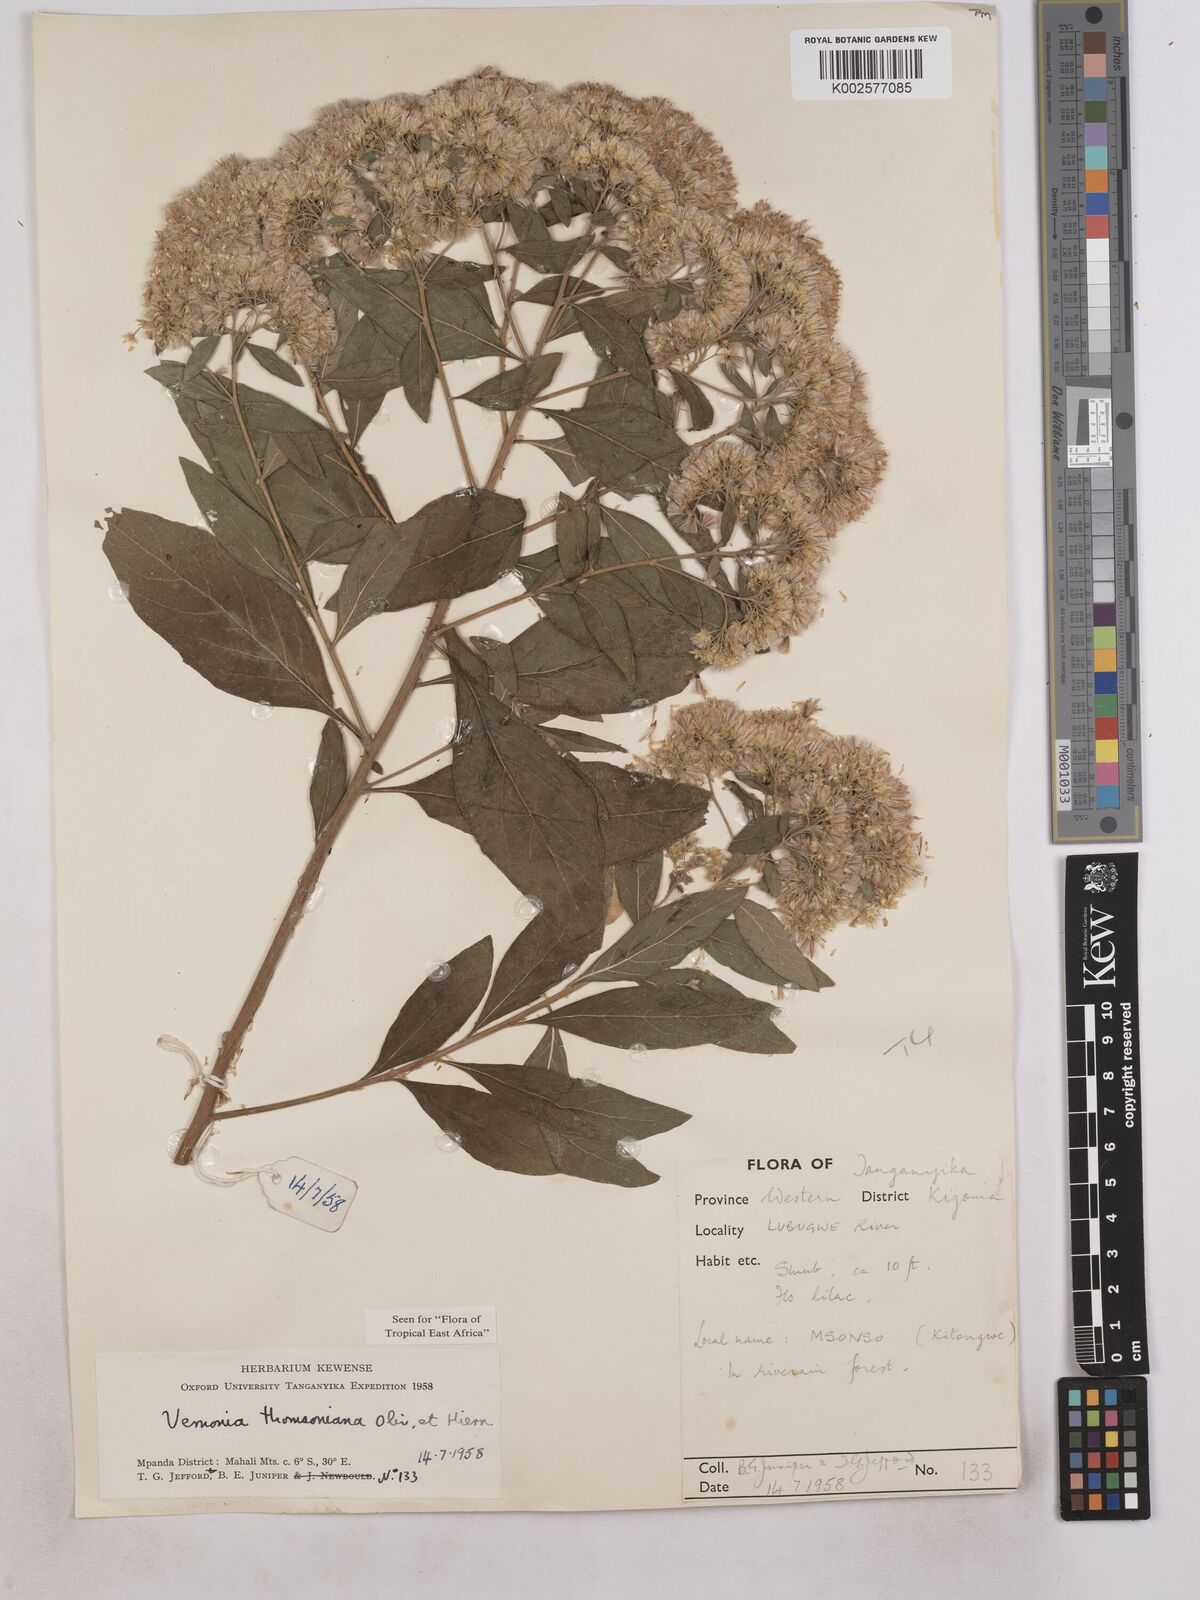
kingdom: Plantae
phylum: Tracheophyta
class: Magnoliopsida
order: Asterales
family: Asteraceae
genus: Gymnanthemum
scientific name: Gymnanthemum thomsonianum
